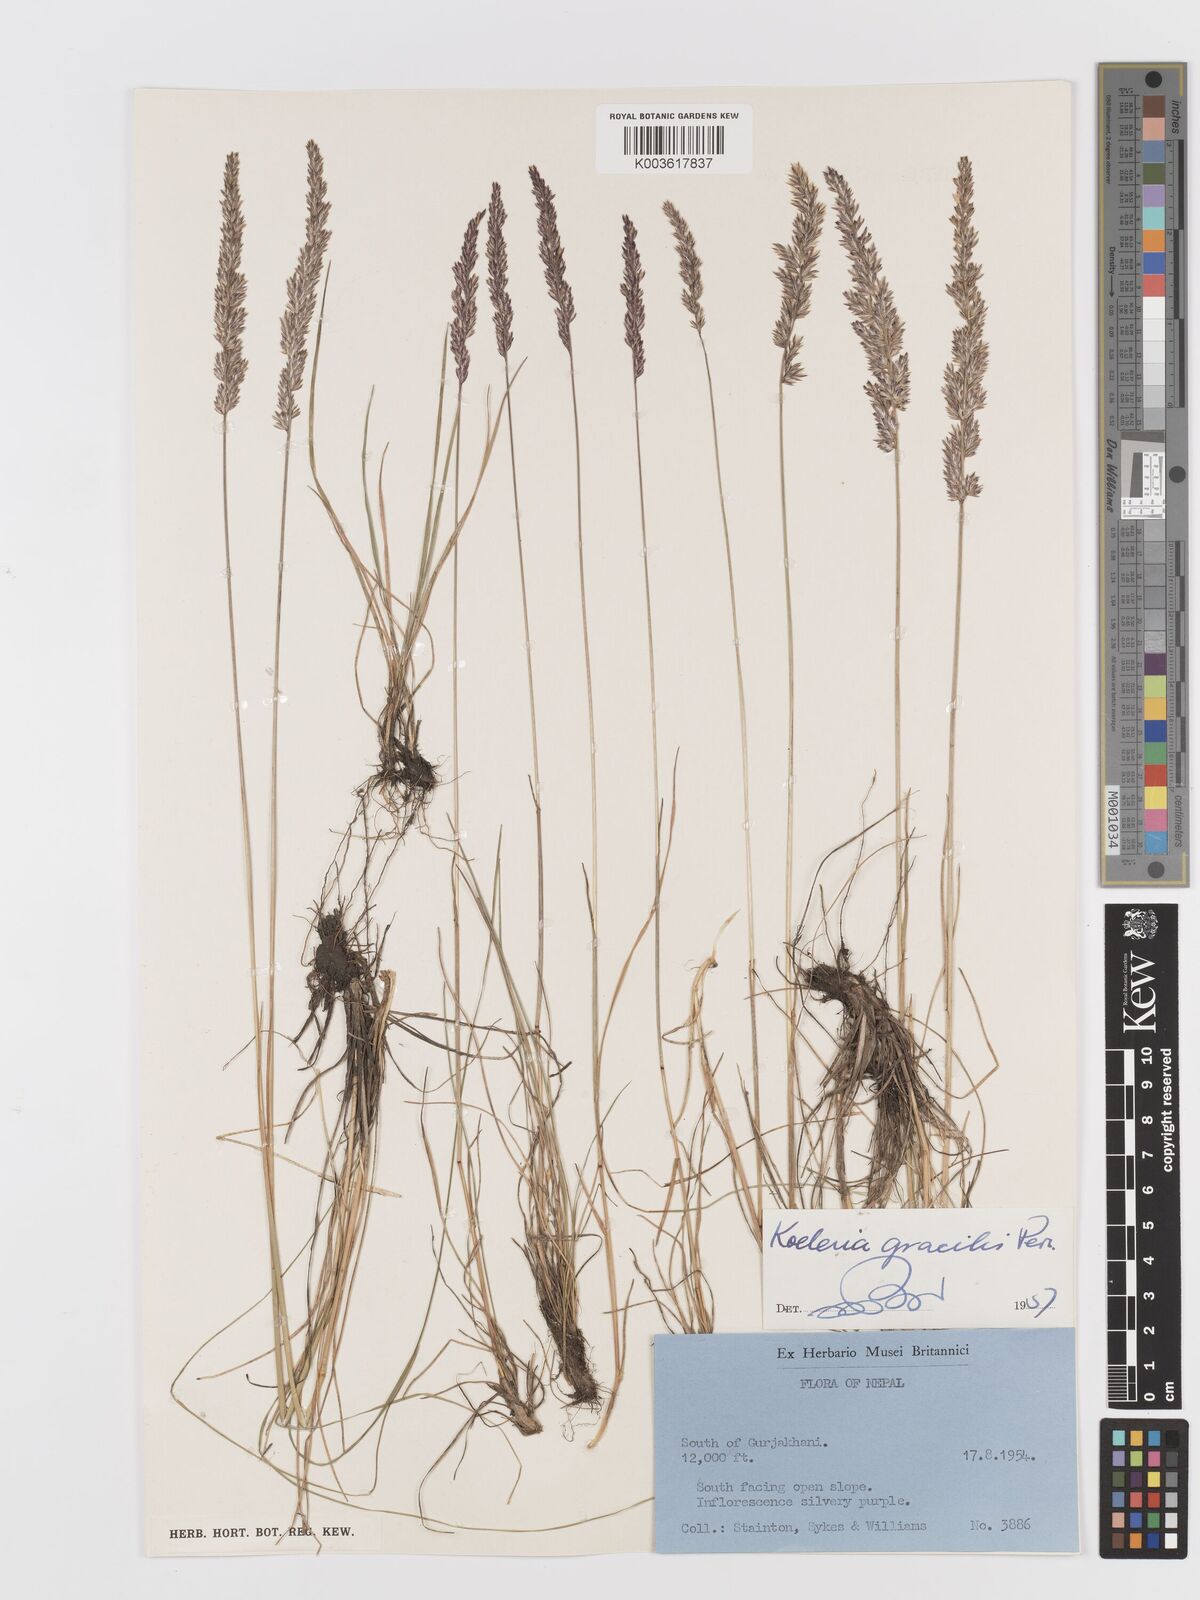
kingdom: Plantae
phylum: Tracheophyta
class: Liliopsida
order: Poales
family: Poaceae
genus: Koeleria
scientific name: Koeleria macrantha
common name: Crested hair-grass
